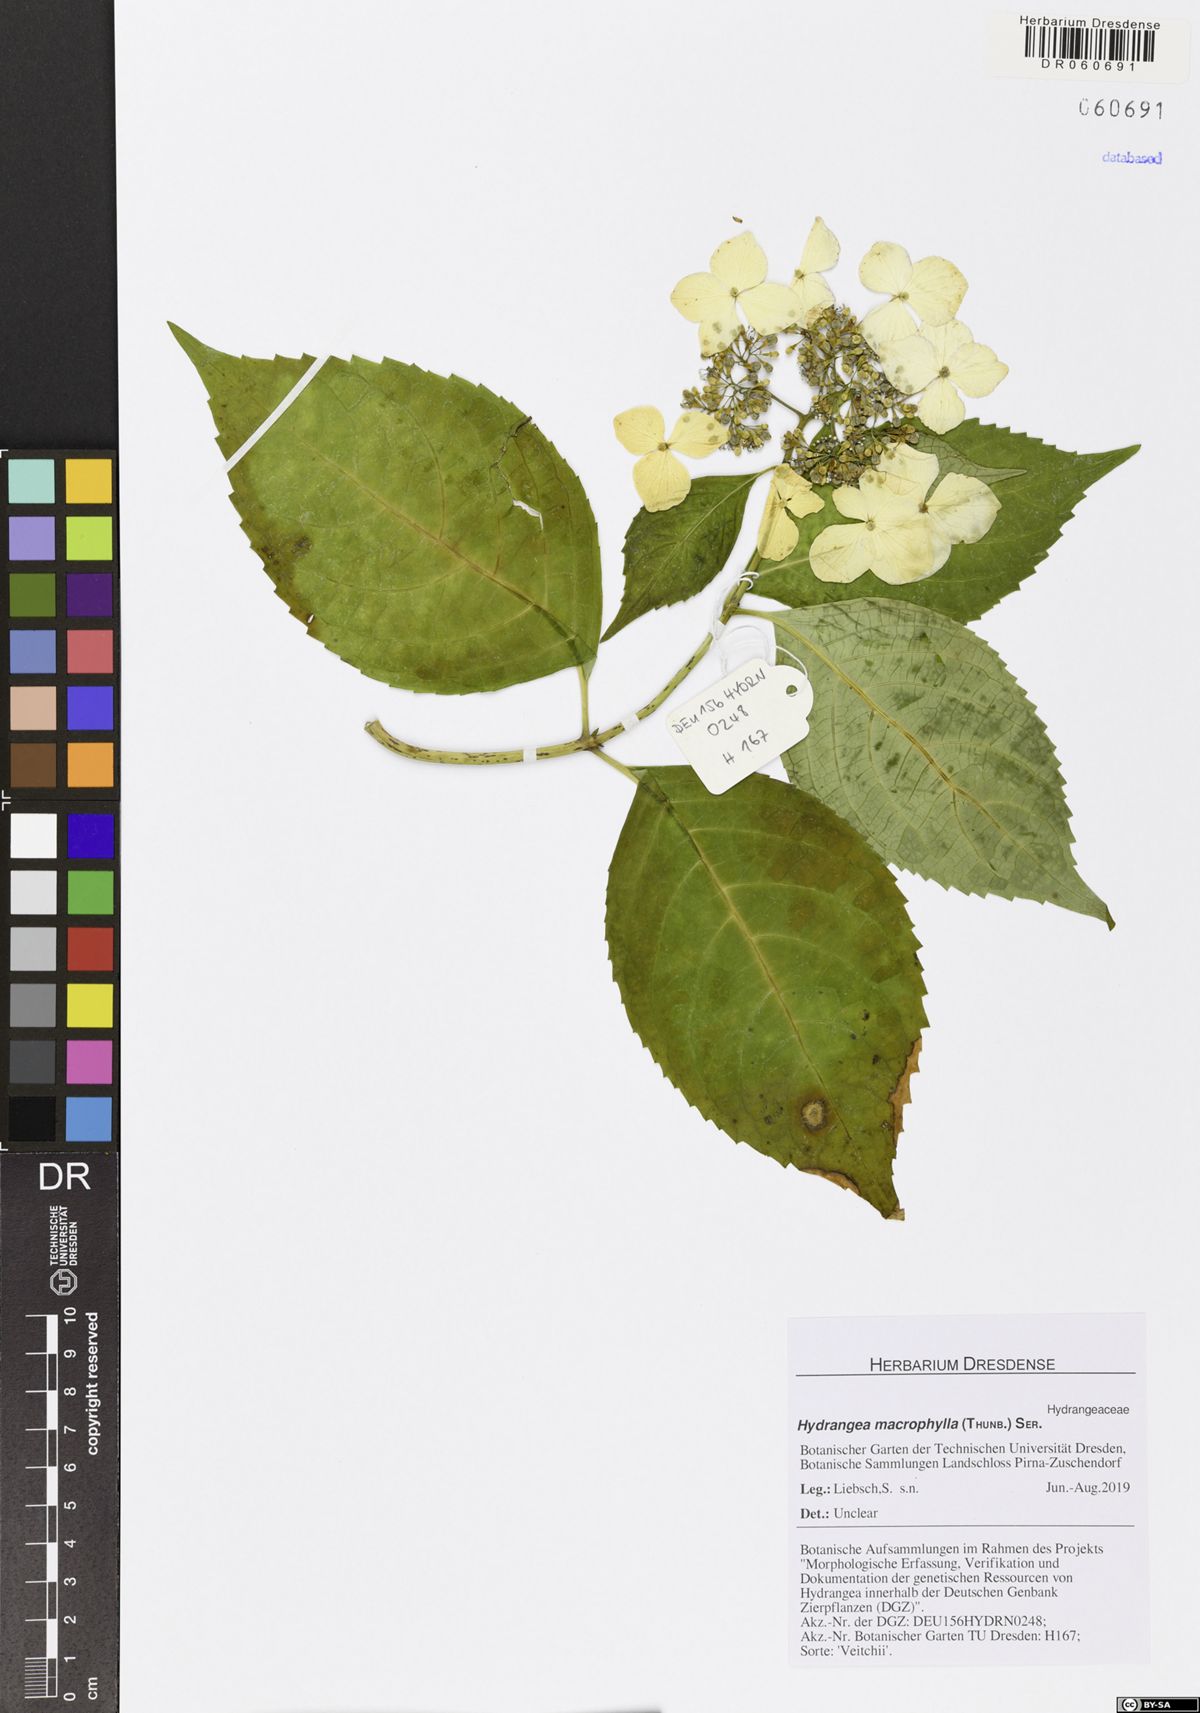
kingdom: Plantae
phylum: Tracheophyta
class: Magnoliopsida
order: Cornales
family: Hydrangeaceae
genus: Hydrangea
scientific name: Hydrangea macrophylla
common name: Hydrangea
